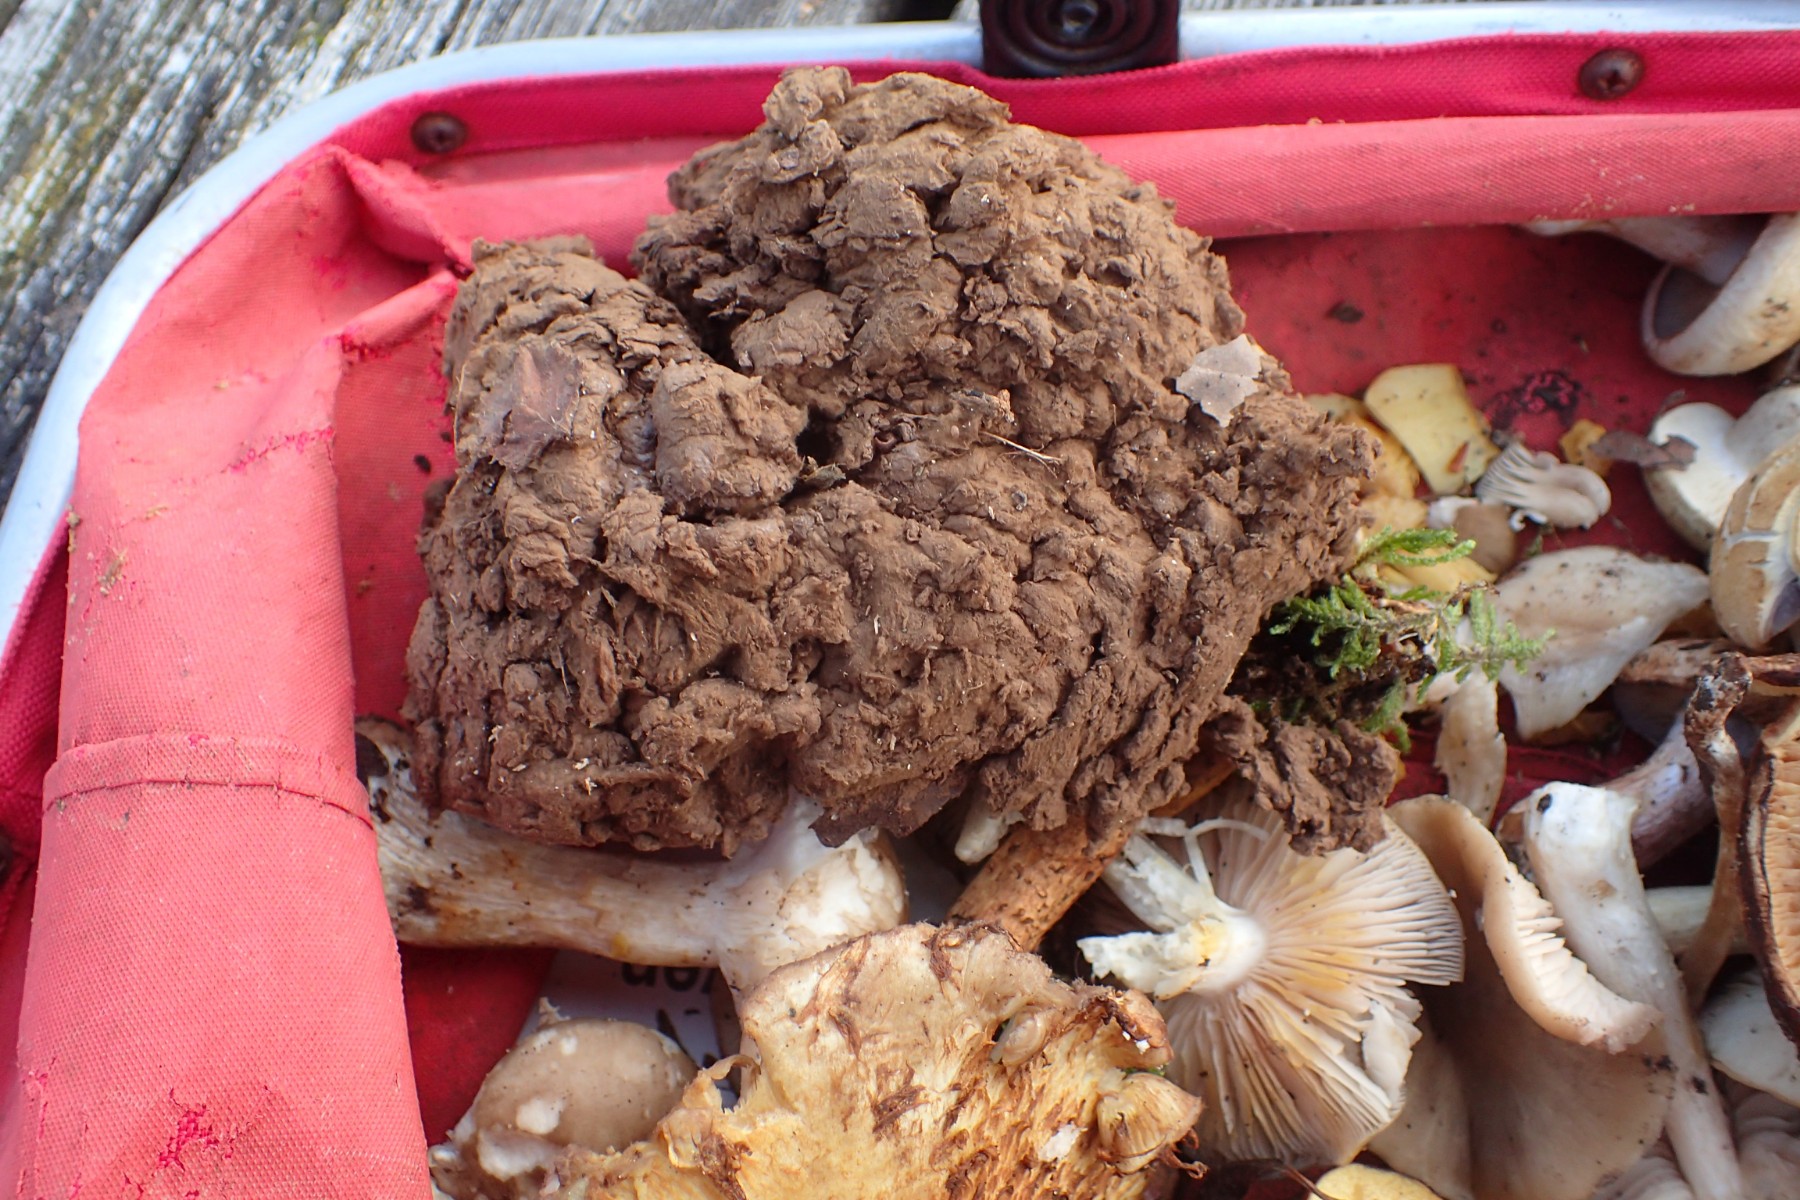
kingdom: Fungi
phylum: Basidiomycota
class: Agaricomycetes
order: Agaricales
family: Lycoperdaceae
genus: Calvatia
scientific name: Calvatia gigantea
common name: kæmpestøvbold
